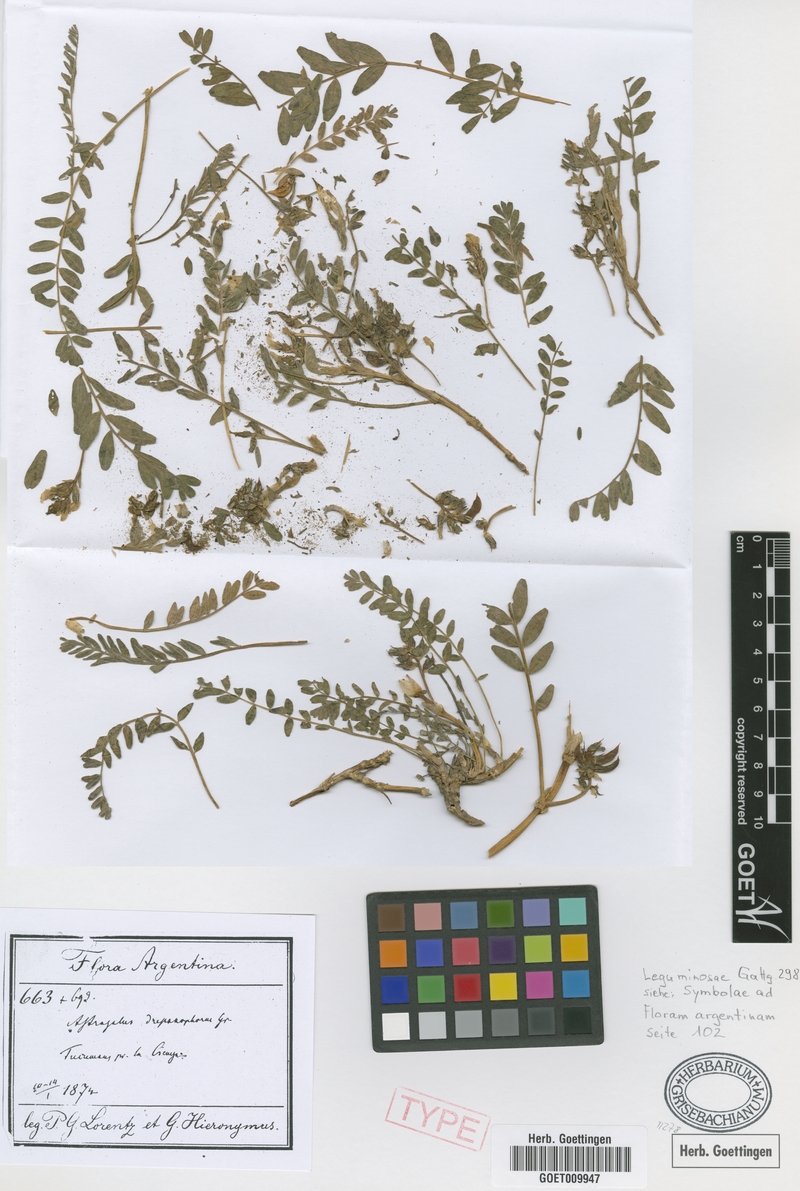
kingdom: Plantae
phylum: Tracheophyta
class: Magnoliopsida
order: Fabales
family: Fabaceae
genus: Astragalus
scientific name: Astragalus arequipensis
